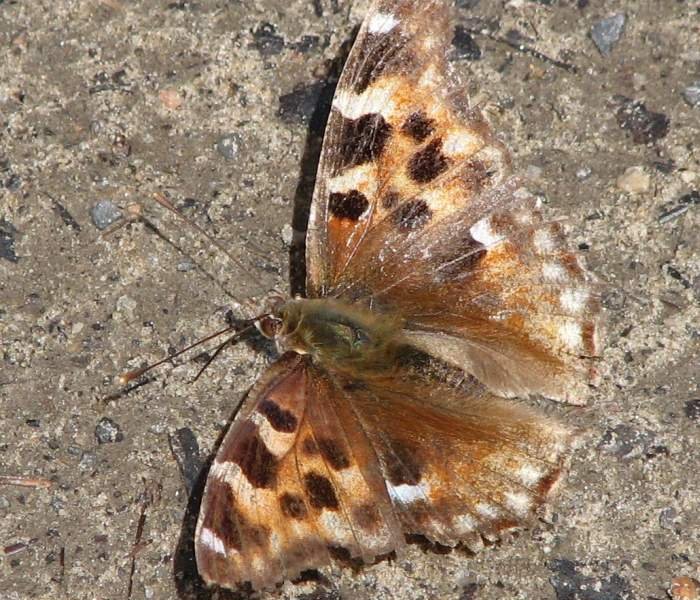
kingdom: Animalia
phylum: Arthropoda
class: Insecta
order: Lepidoptera
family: Nymphalidae
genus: Polygonia
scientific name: Polygonia vaualbum
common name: Compton Tortoiseshell
